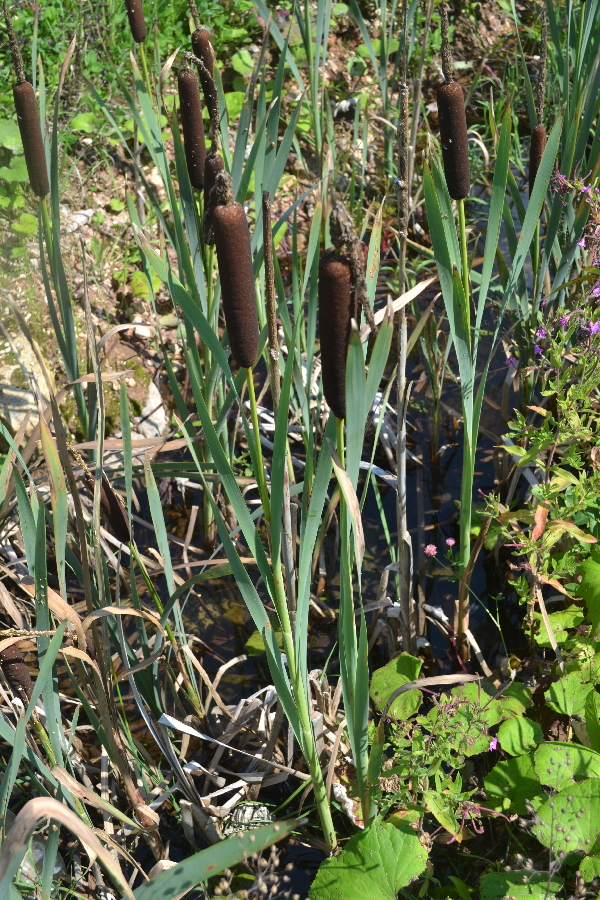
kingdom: Plantae
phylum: Tracheophyta
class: Liliopsida
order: Poales
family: Typhaceae
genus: Typha
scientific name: Typha latifolia
